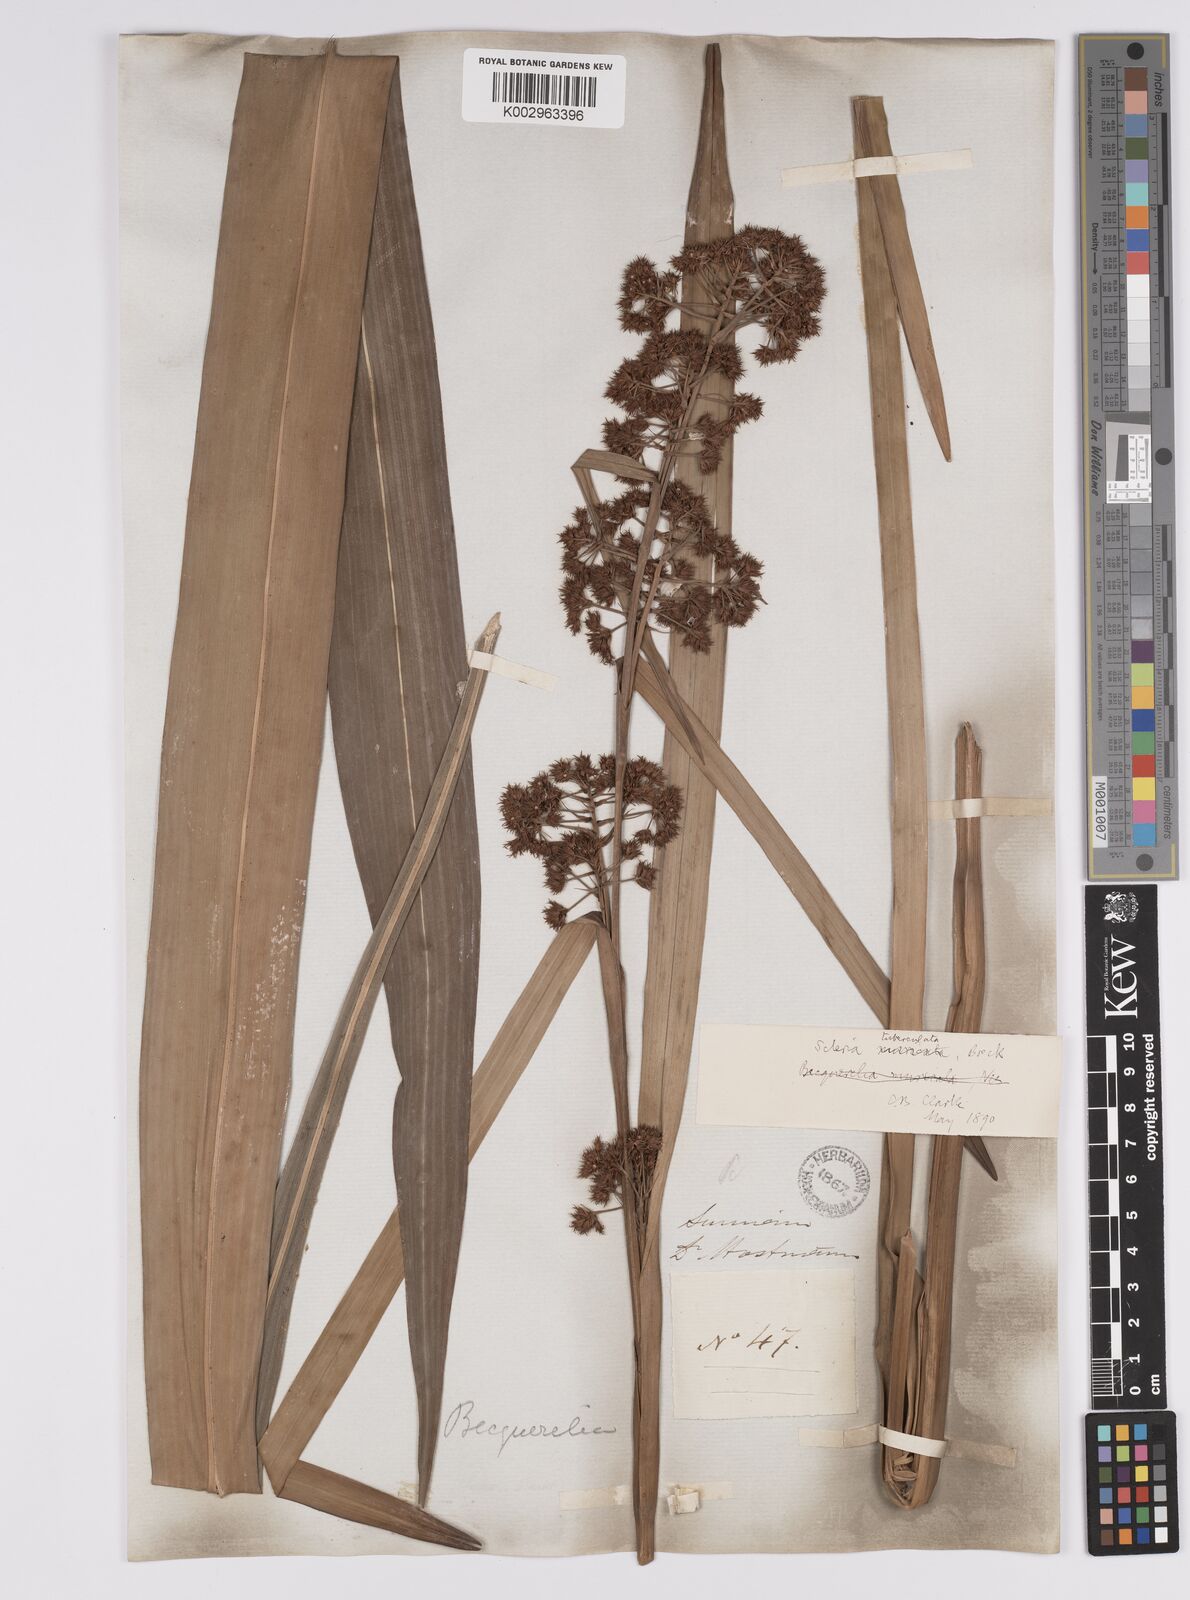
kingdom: Plantae
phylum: Tracheophyta
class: Liliopsida
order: Poales
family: Cyperaceae
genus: Becquerelia
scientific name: Becquerelia tuberculata
